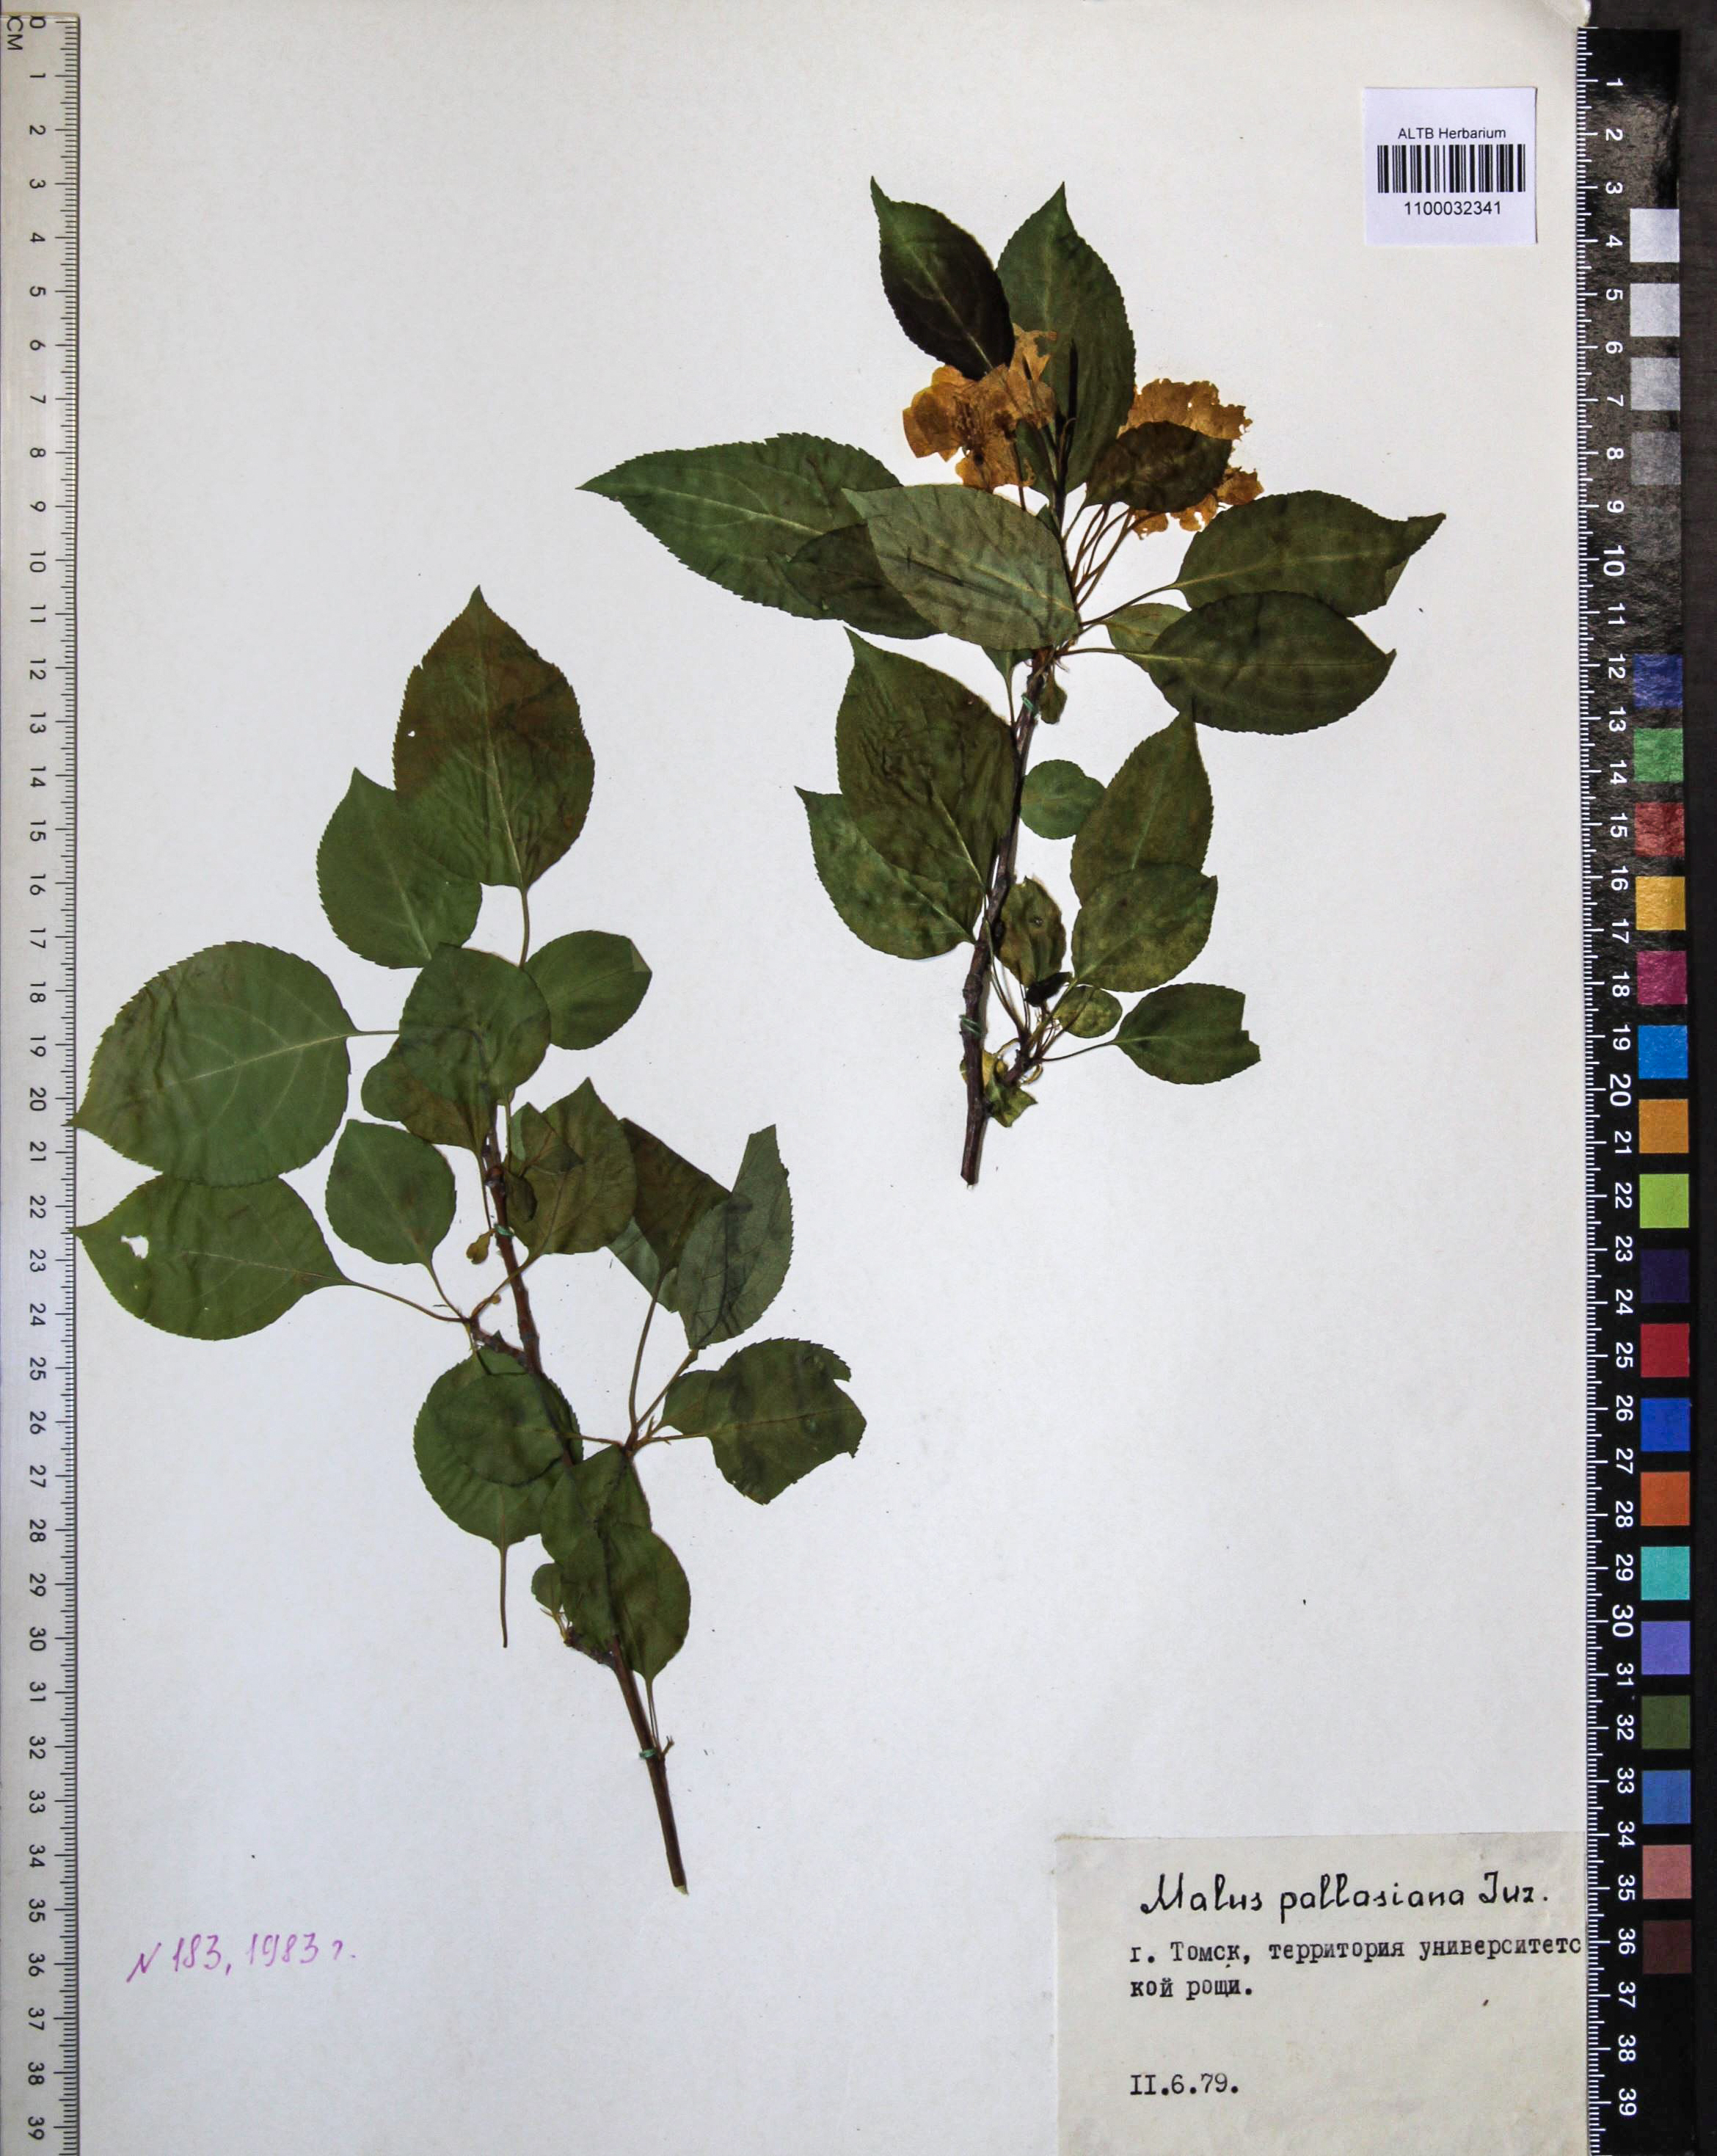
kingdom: Plantae
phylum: Tracheophyta
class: Magnoliopsida
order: Rosales
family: Rosaceae
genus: Malus
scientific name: Malus baccata
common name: Siberian crab
